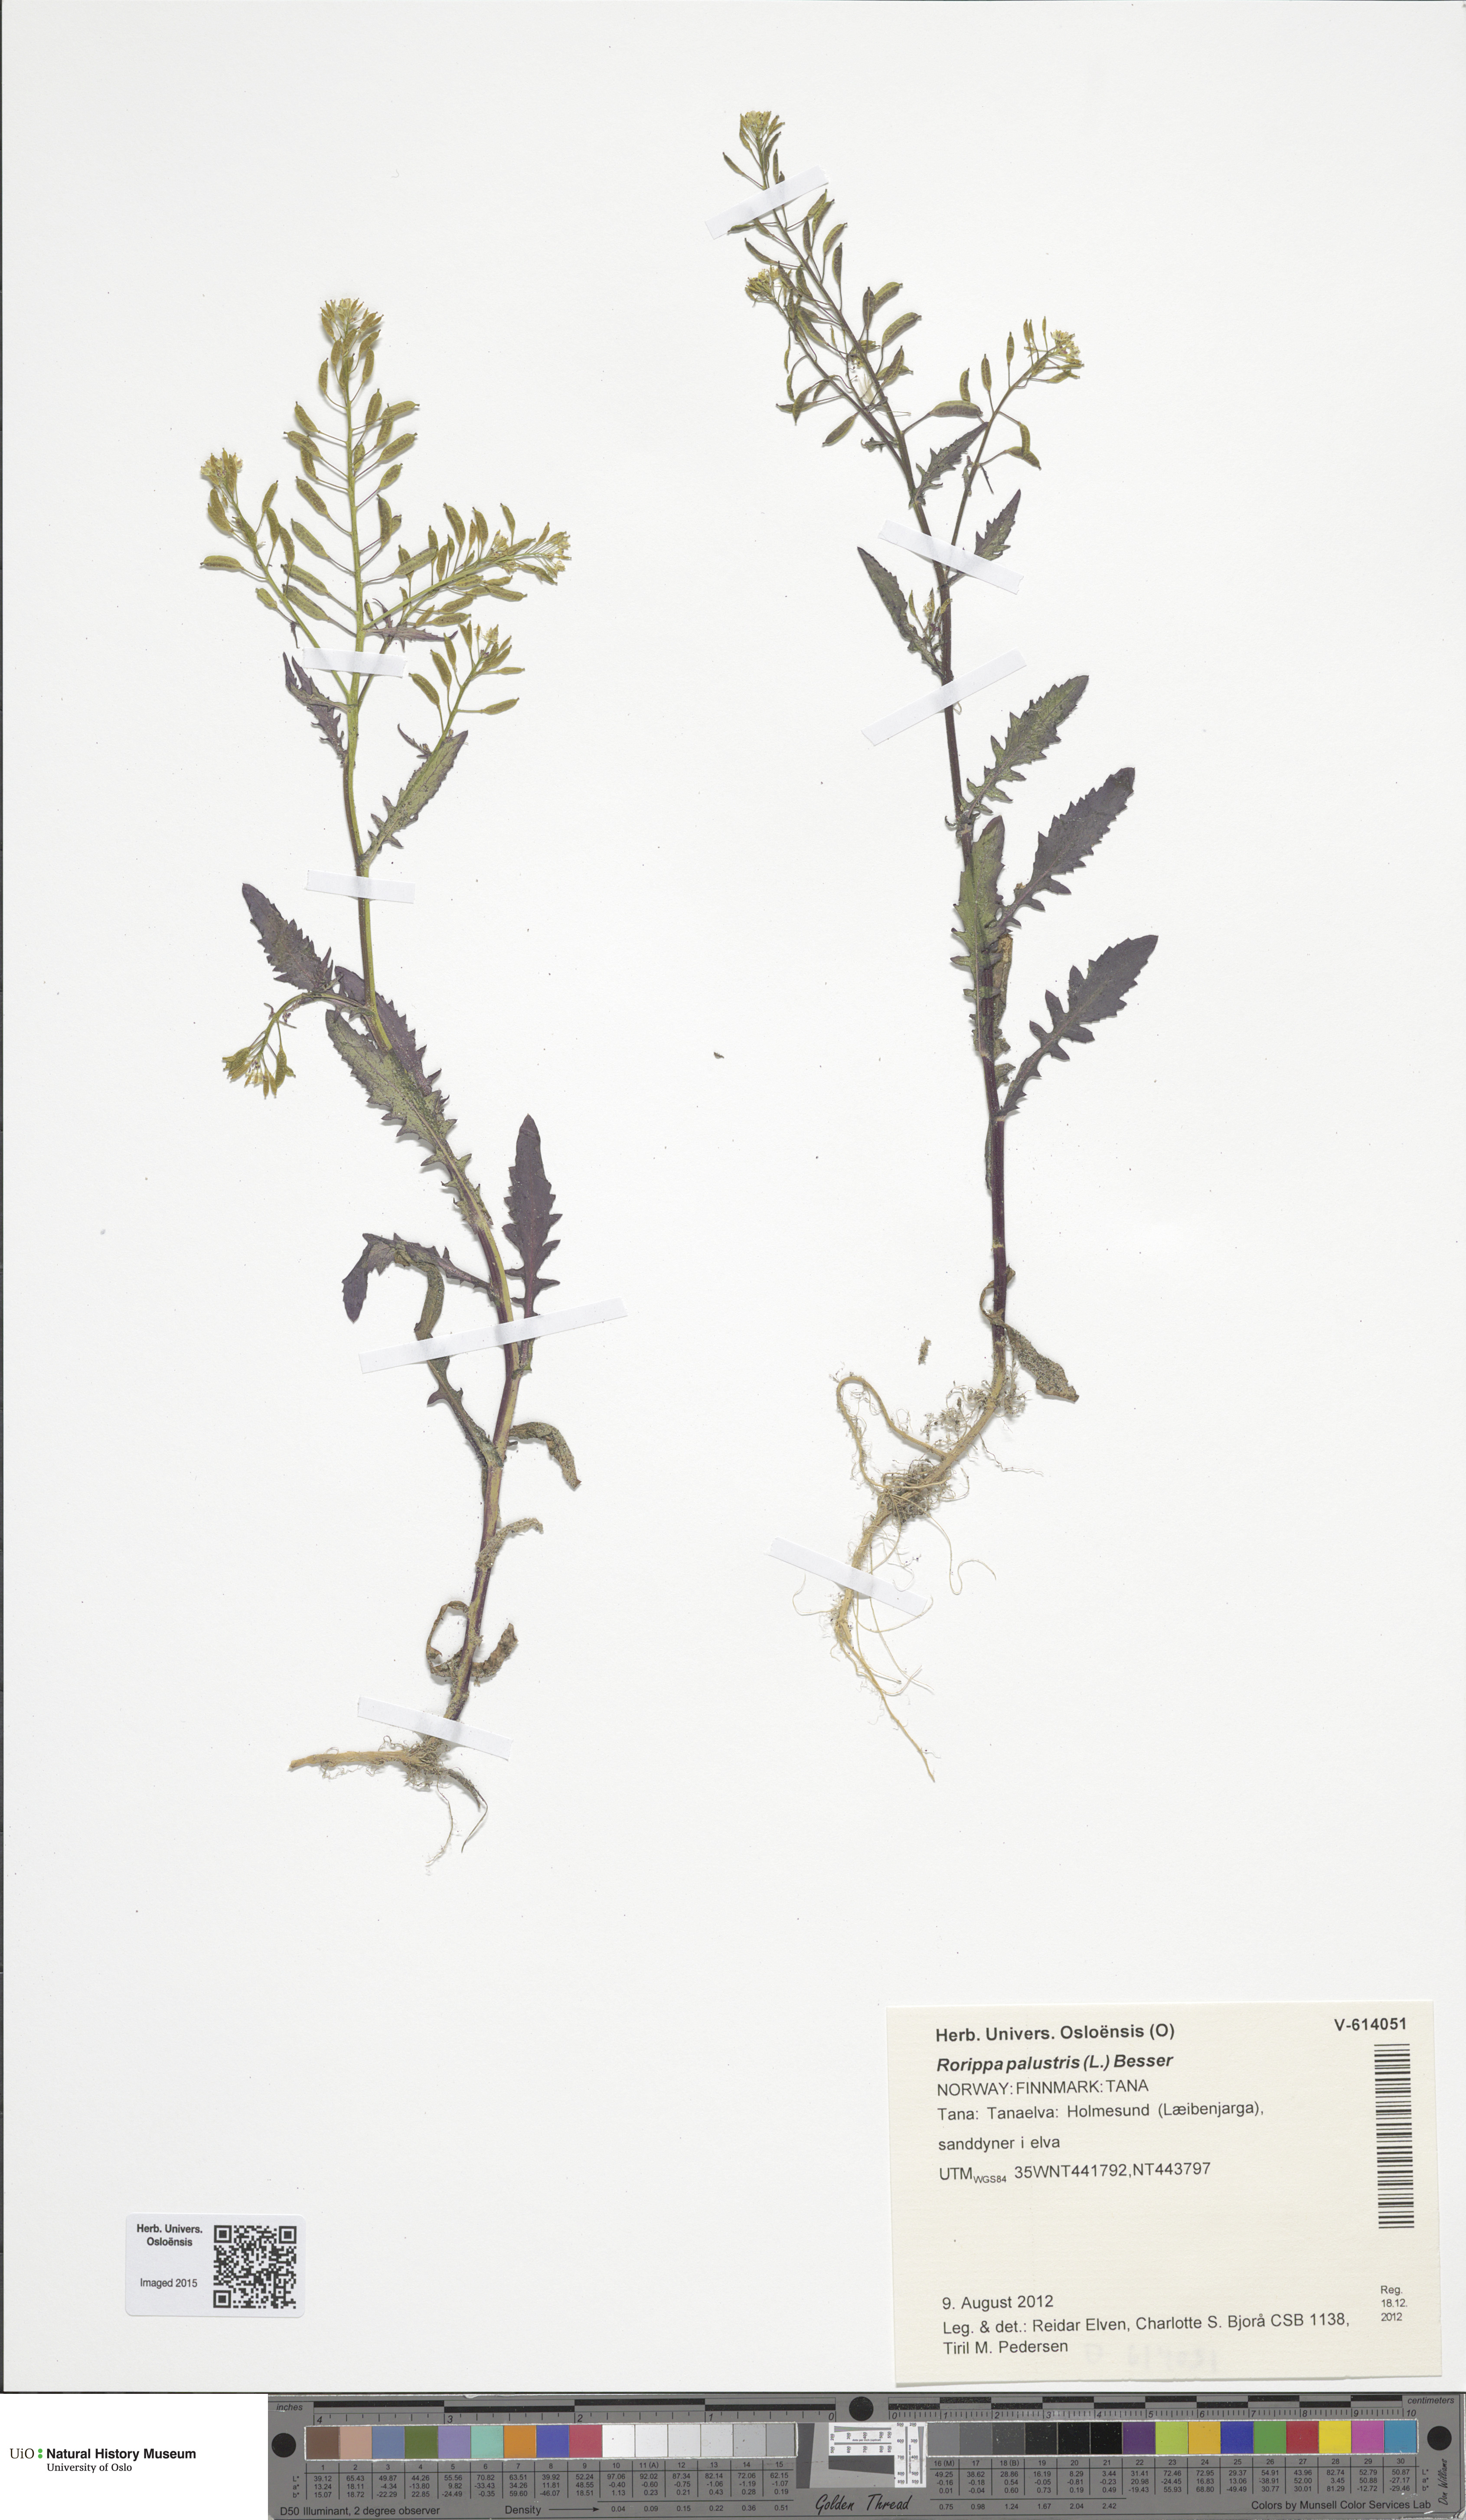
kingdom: Plantae
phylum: Tracheophyta
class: Magnoliopsida
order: Brassicales
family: Brassicaceae
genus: Rorippa
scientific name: Rorippa palustris
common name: Marsh yellow-cress
